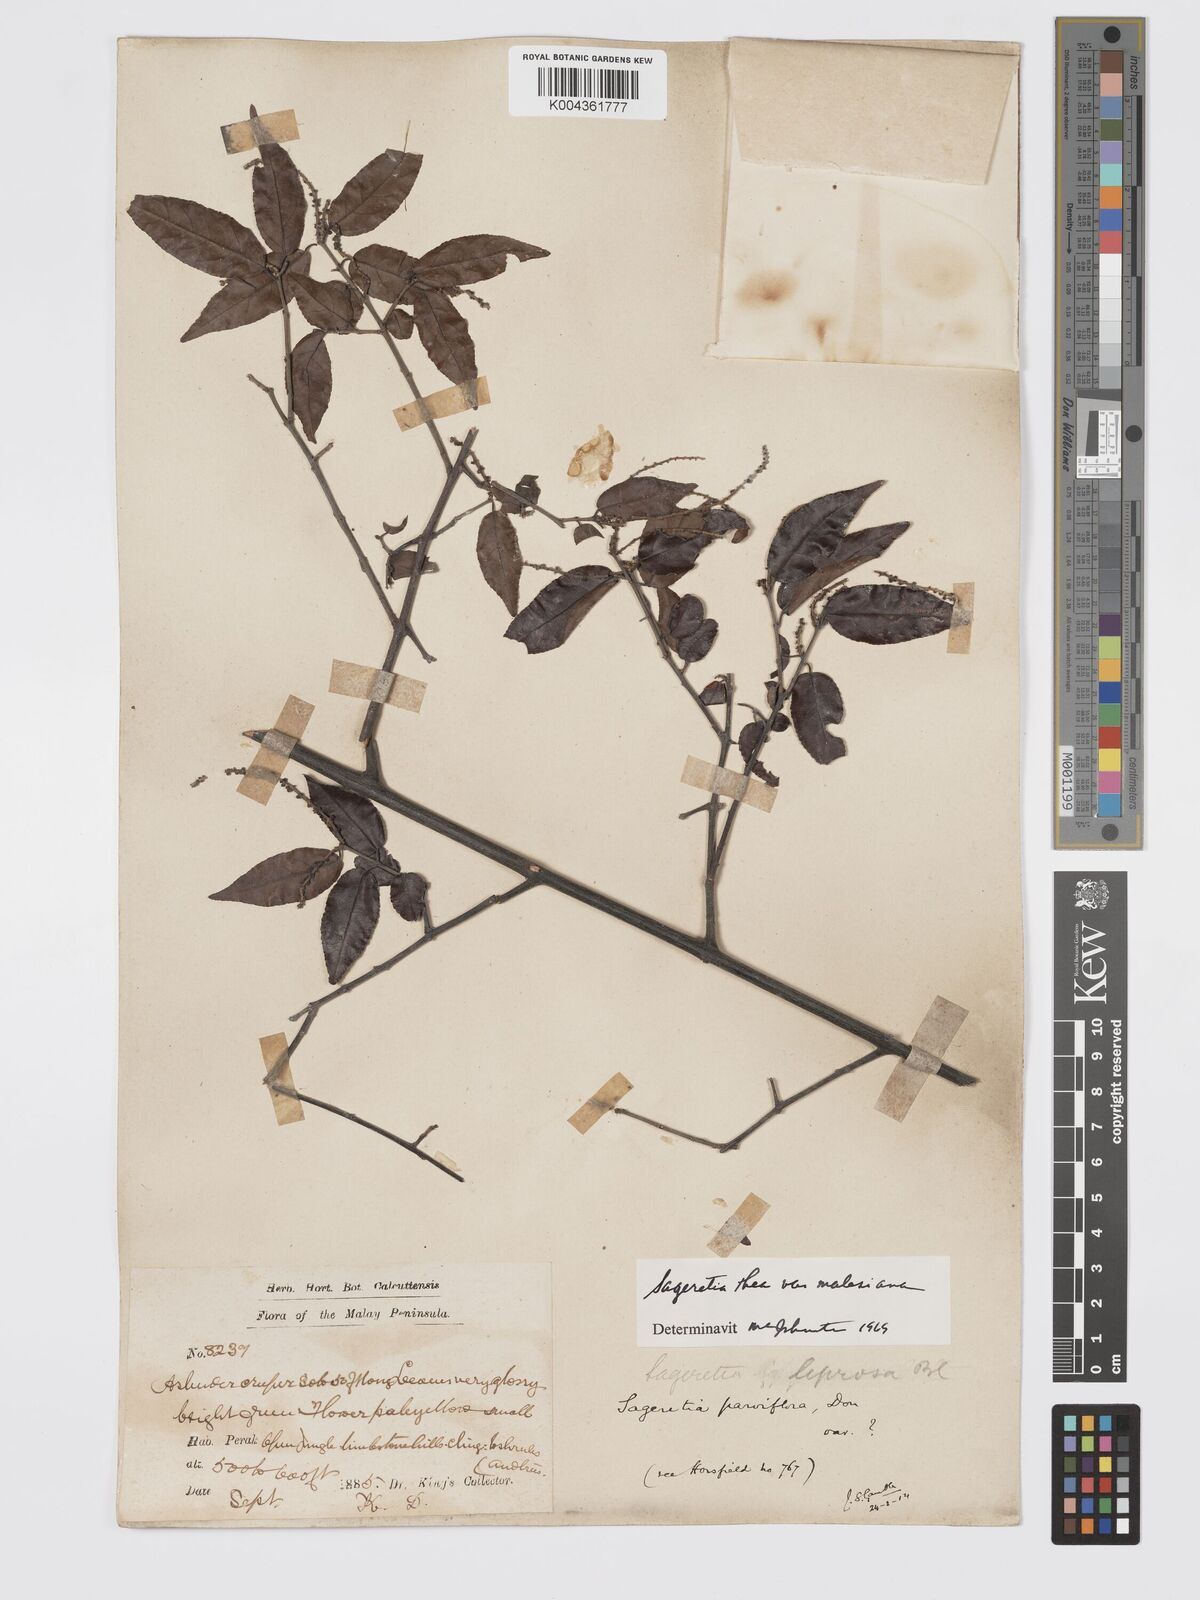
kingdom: Plantae
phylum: Tracheophyta
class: Magnoliopsida
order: Rosales
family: Rhamnaceae
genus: Sageretia
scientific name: Sageretia parviflora
